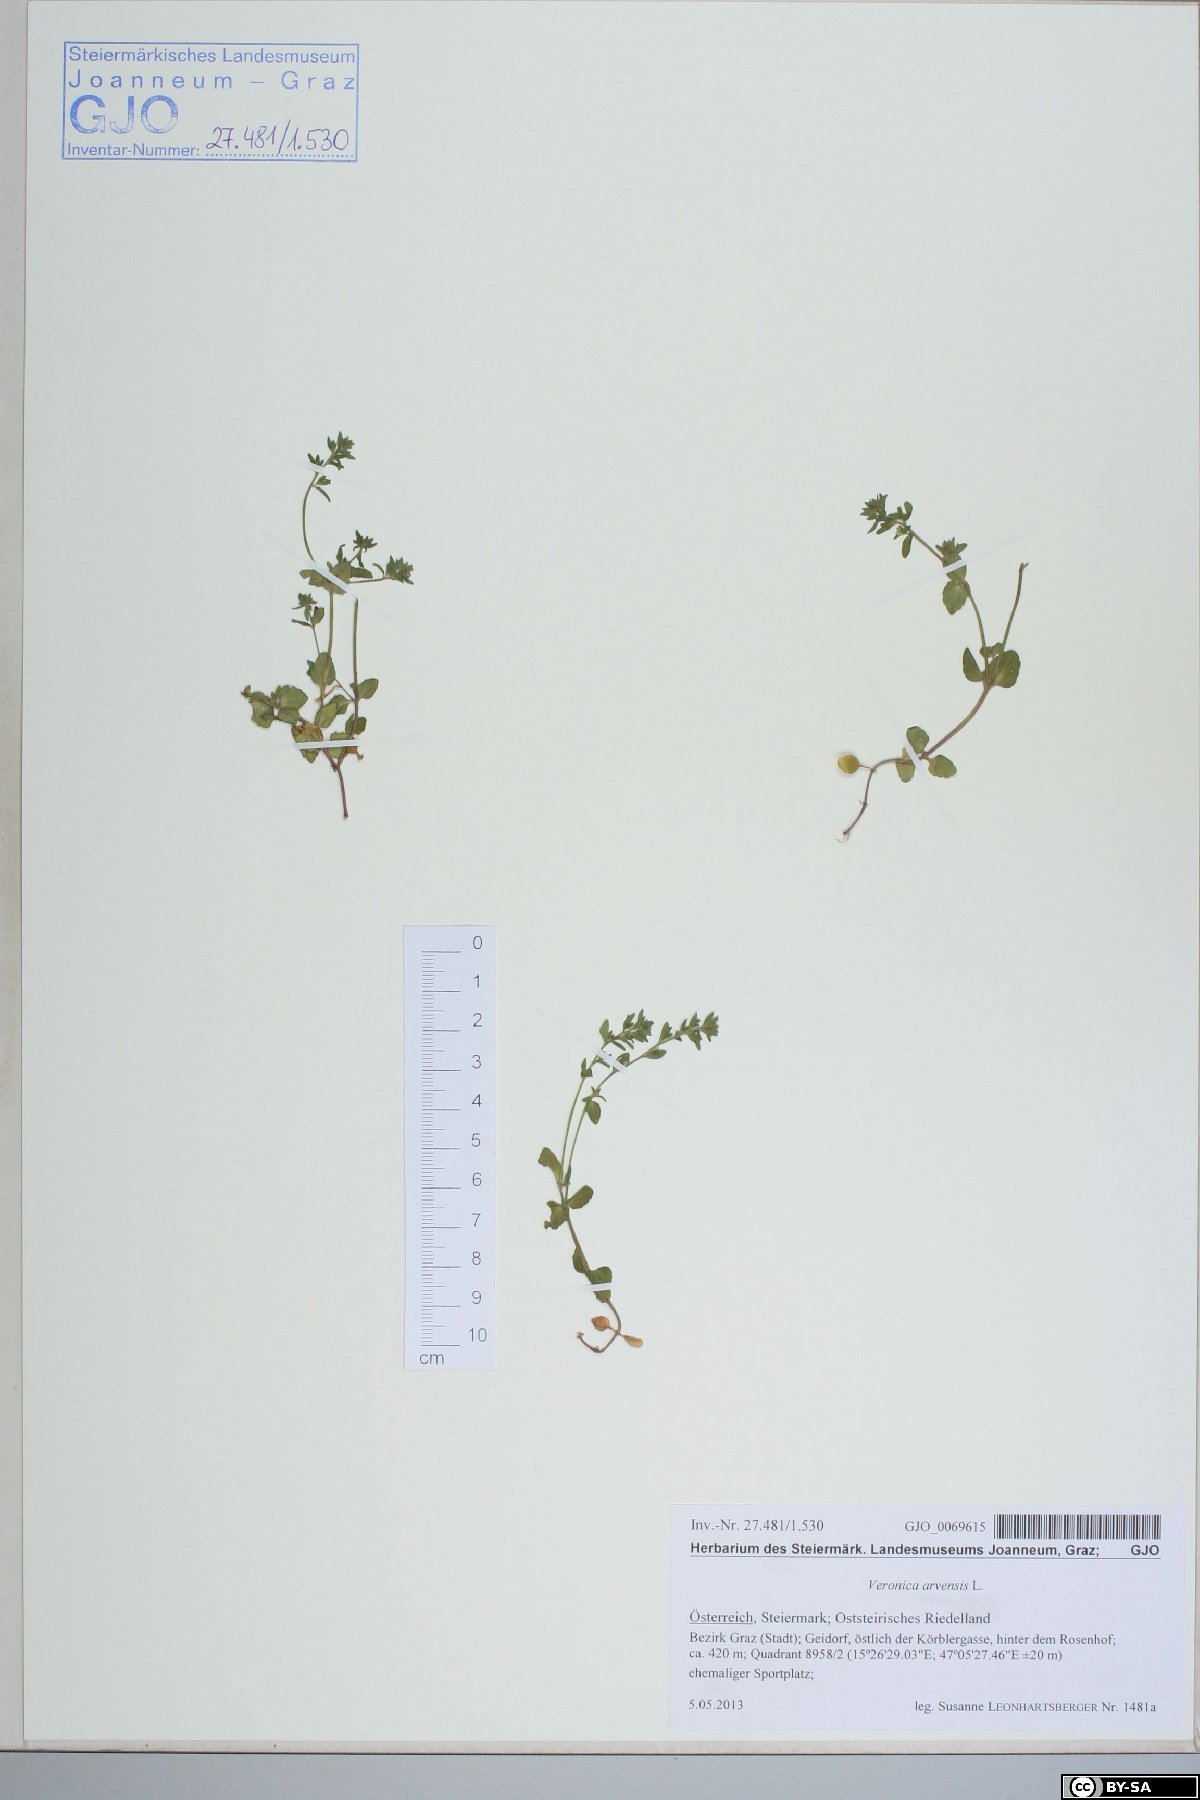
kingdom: Plantae
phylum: Tracheophyta
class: Magnoliopsida
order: Lamiales
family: Plantaginaceae
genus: Veronica
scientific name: Veronica arvensis
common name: Corn speedwell
